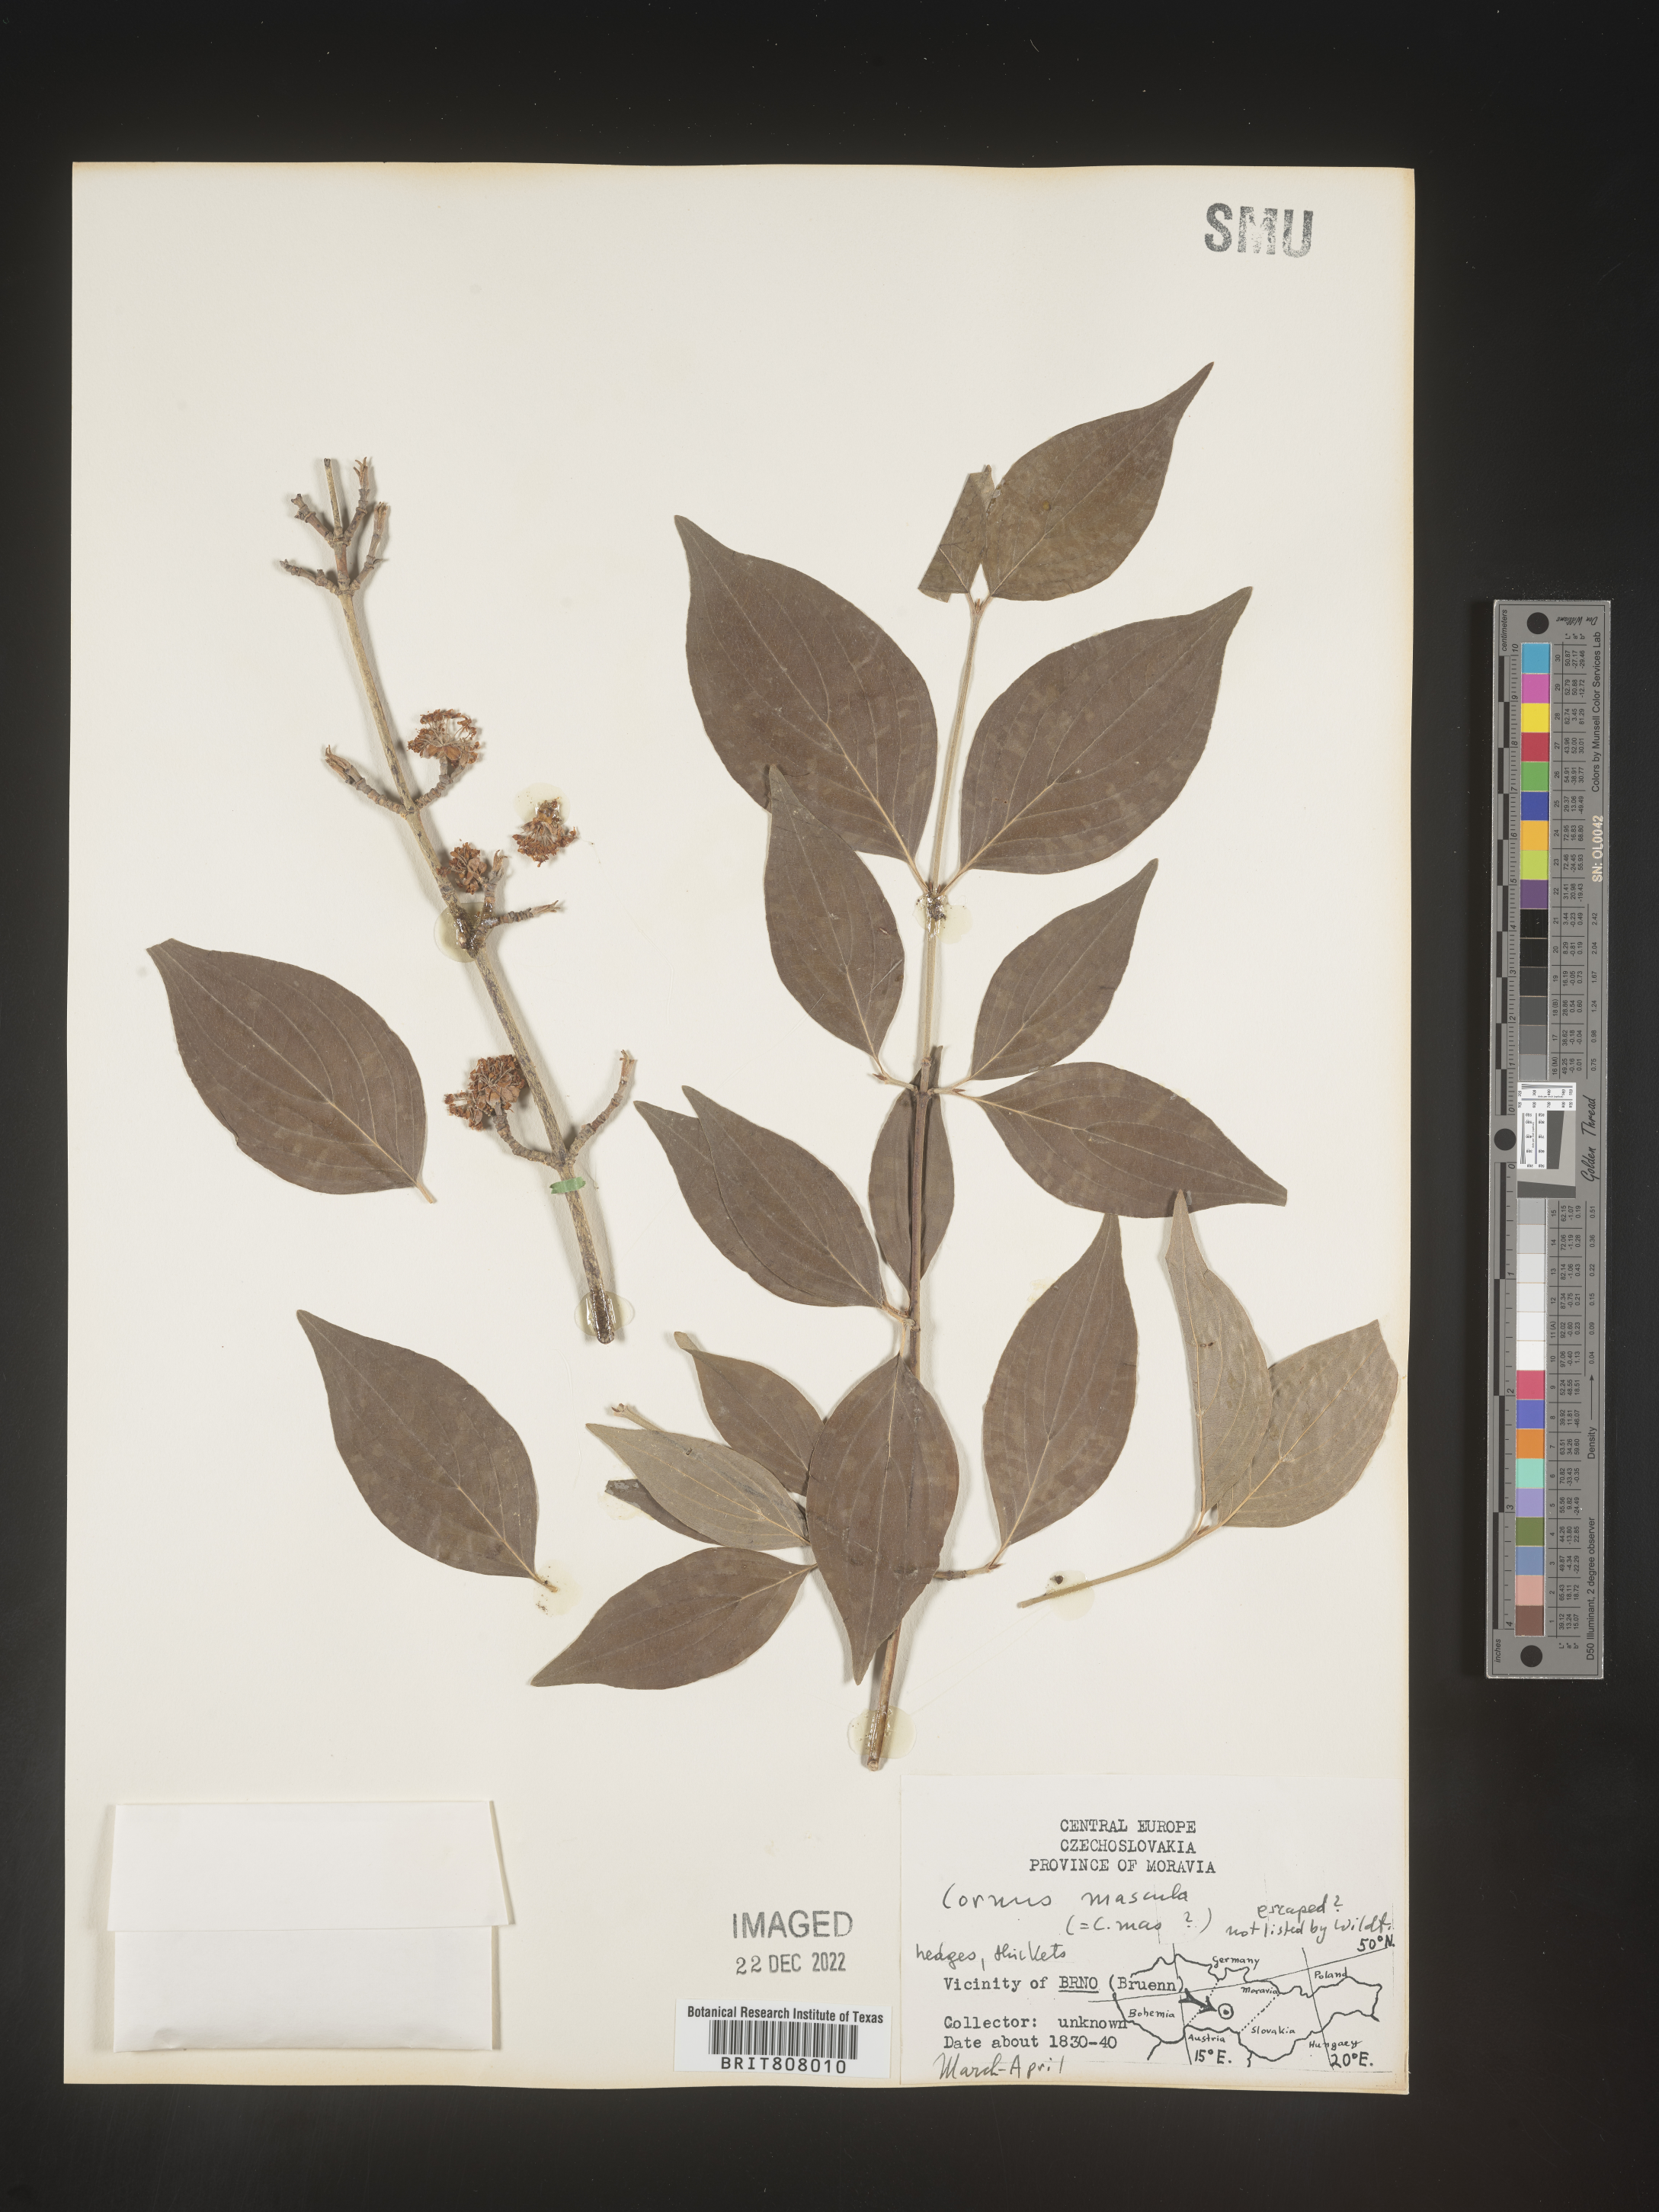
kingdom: Plantae
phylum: Tracheophyta
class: Magnoliopsida
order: Cornales
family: Cornaceae
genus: Cornus
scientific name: Cornus
